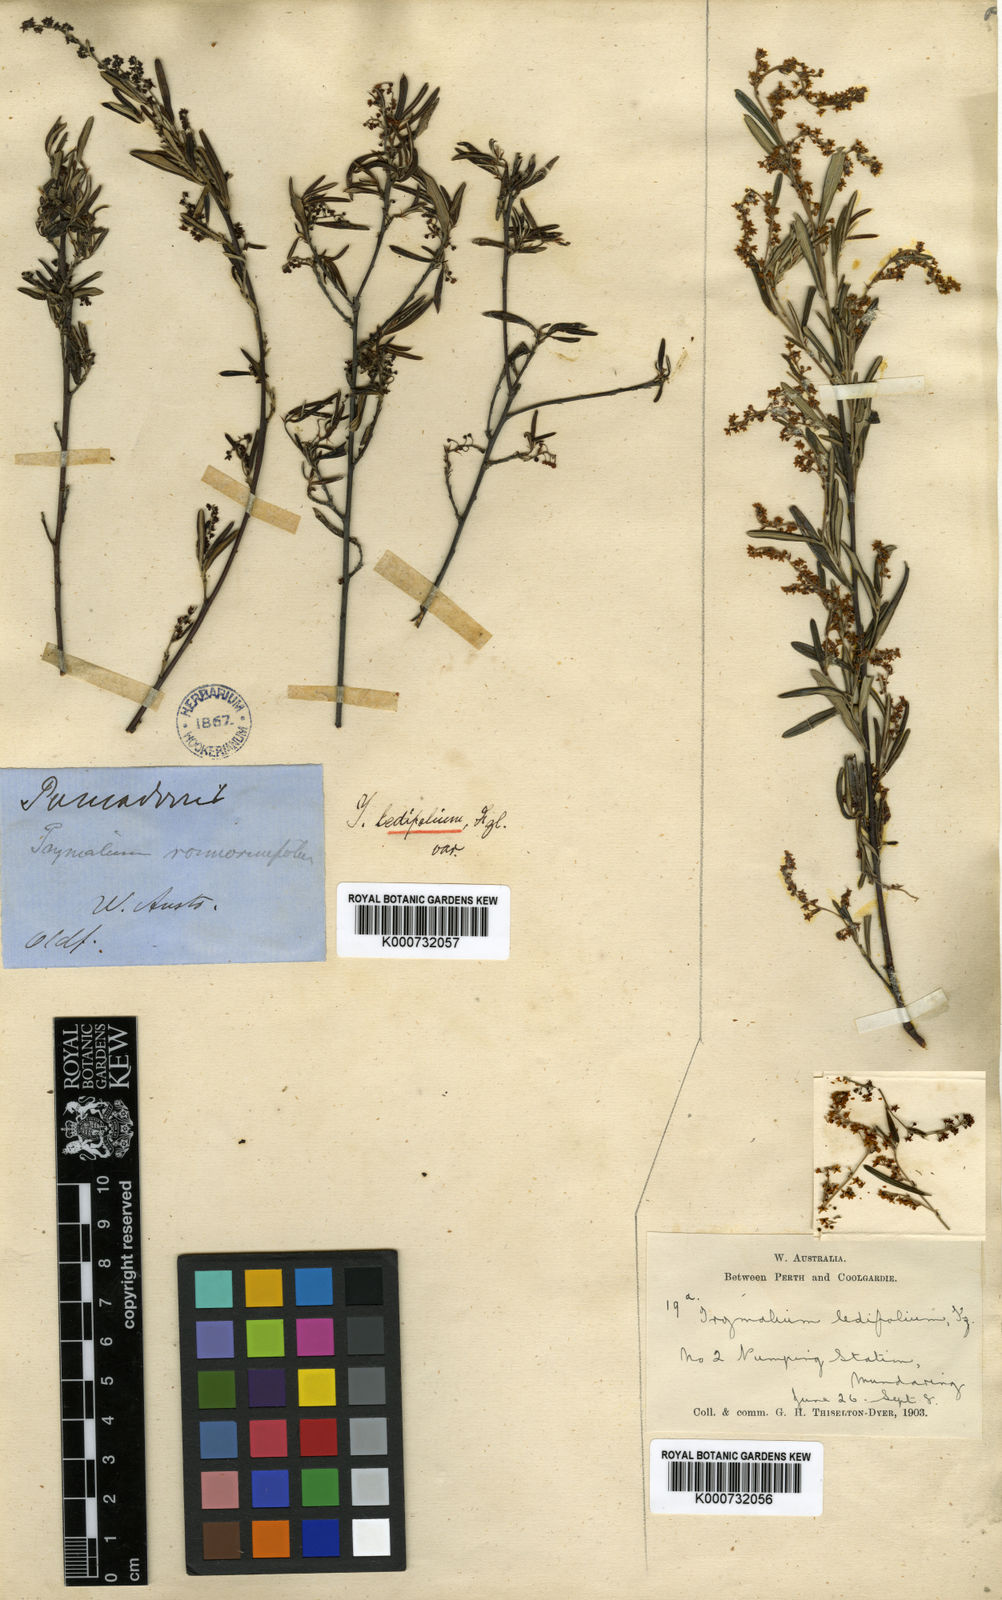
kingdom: Plantae
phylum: Tracheophyta
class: Magnoliopsida
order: Rosales
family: Rhamnaceae
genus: Trymalium
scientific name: Trymalium ledifolium
